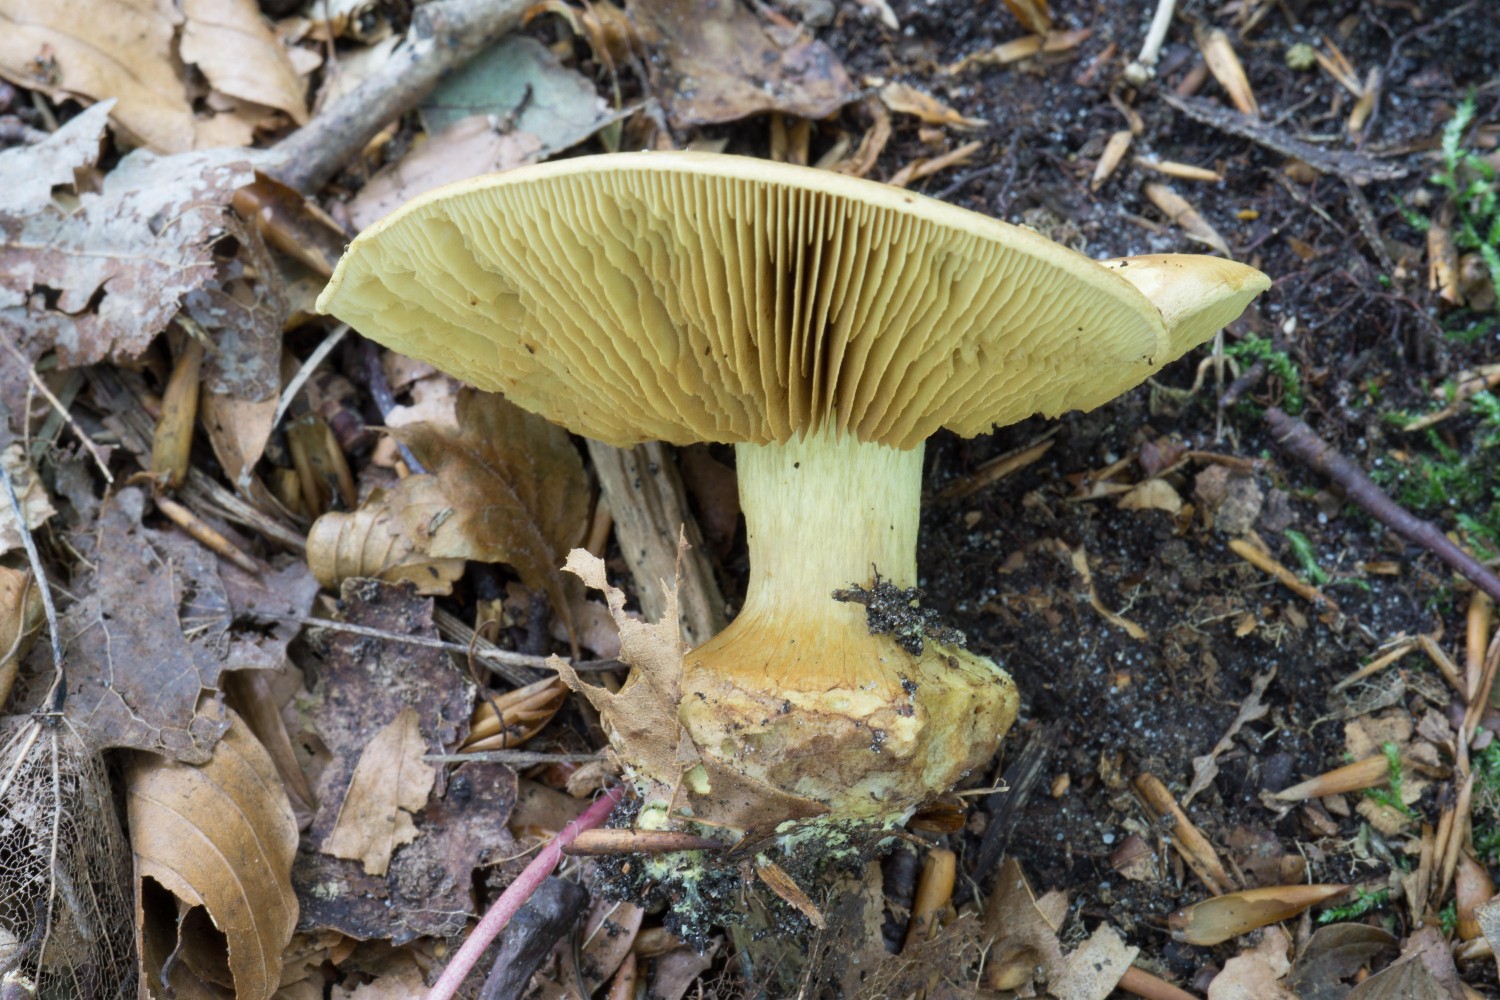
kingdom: Fungi
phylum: Basidiomycota
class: Agaricomycetes
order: Agaricales
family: Cortinariaceae
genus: Calonarius
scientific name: Calonarius citrinus
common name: citrongul slørhat
